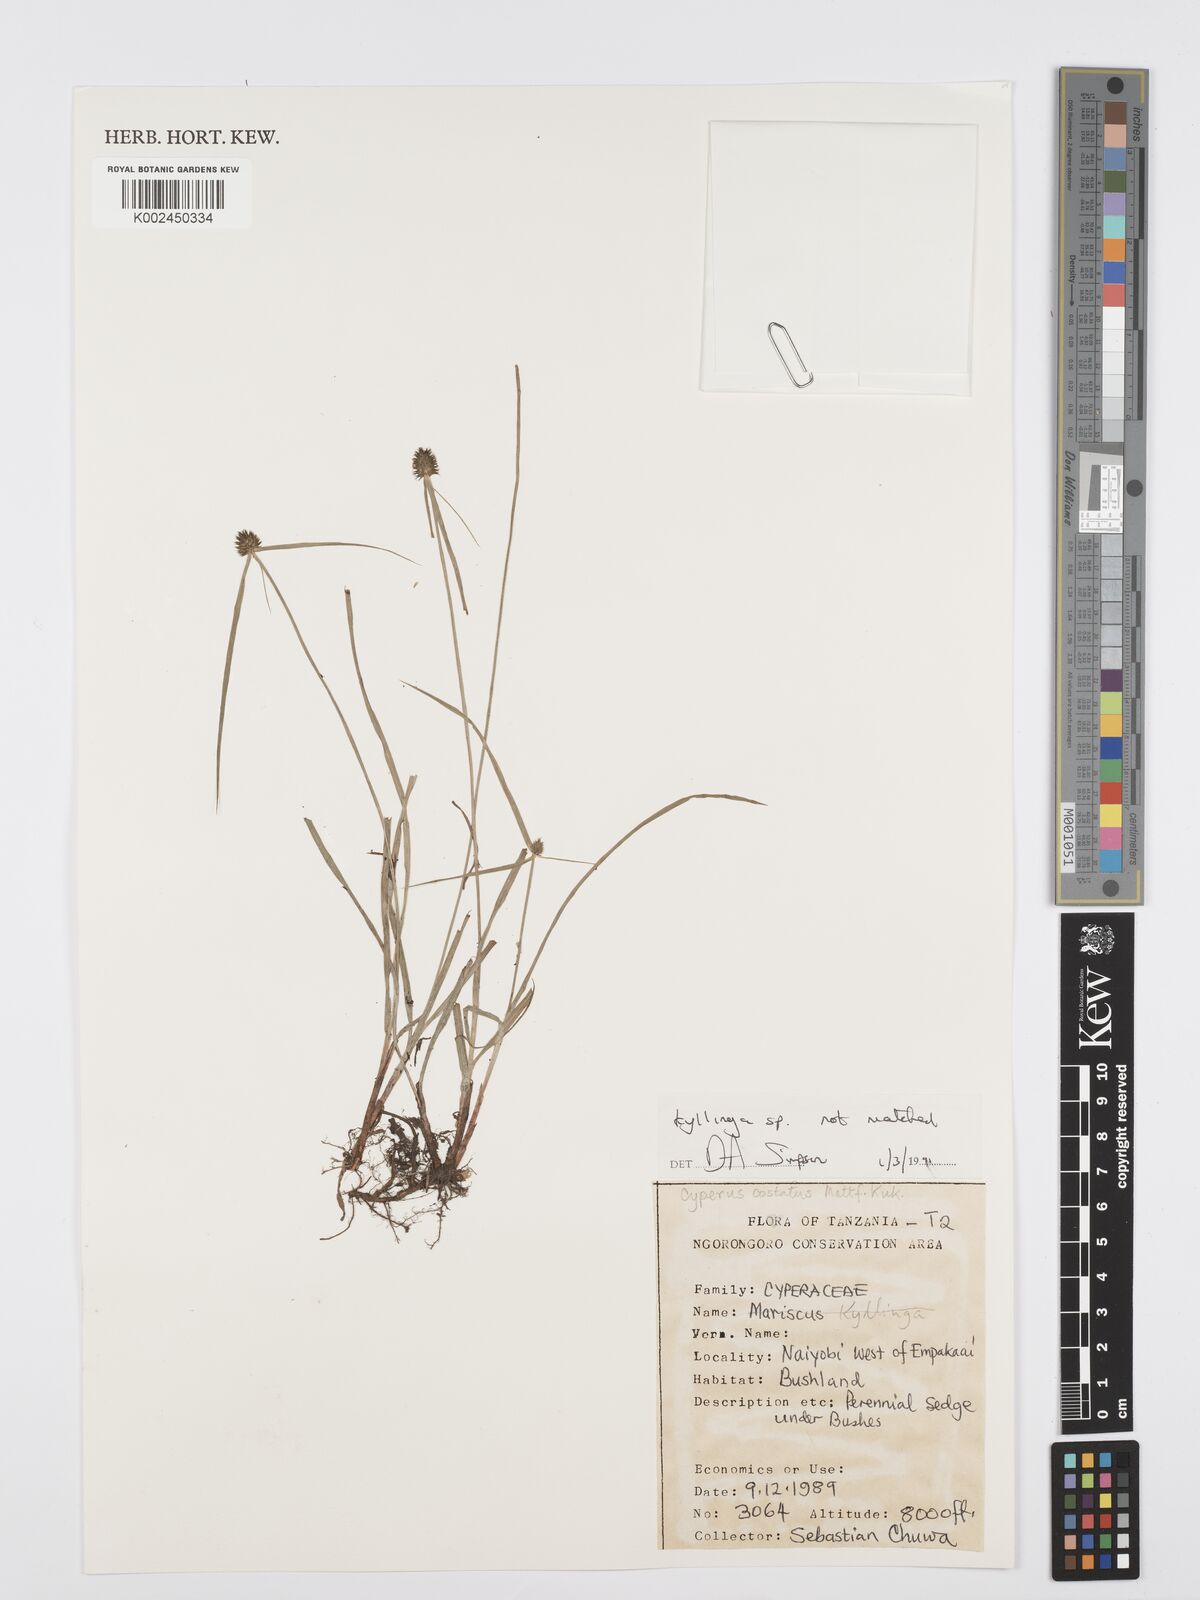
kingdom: Plantae
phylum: Tracheophyta
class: Liliopsida
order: Poales
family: Cyperaceae
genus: Cyperus
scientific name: Cyperus
